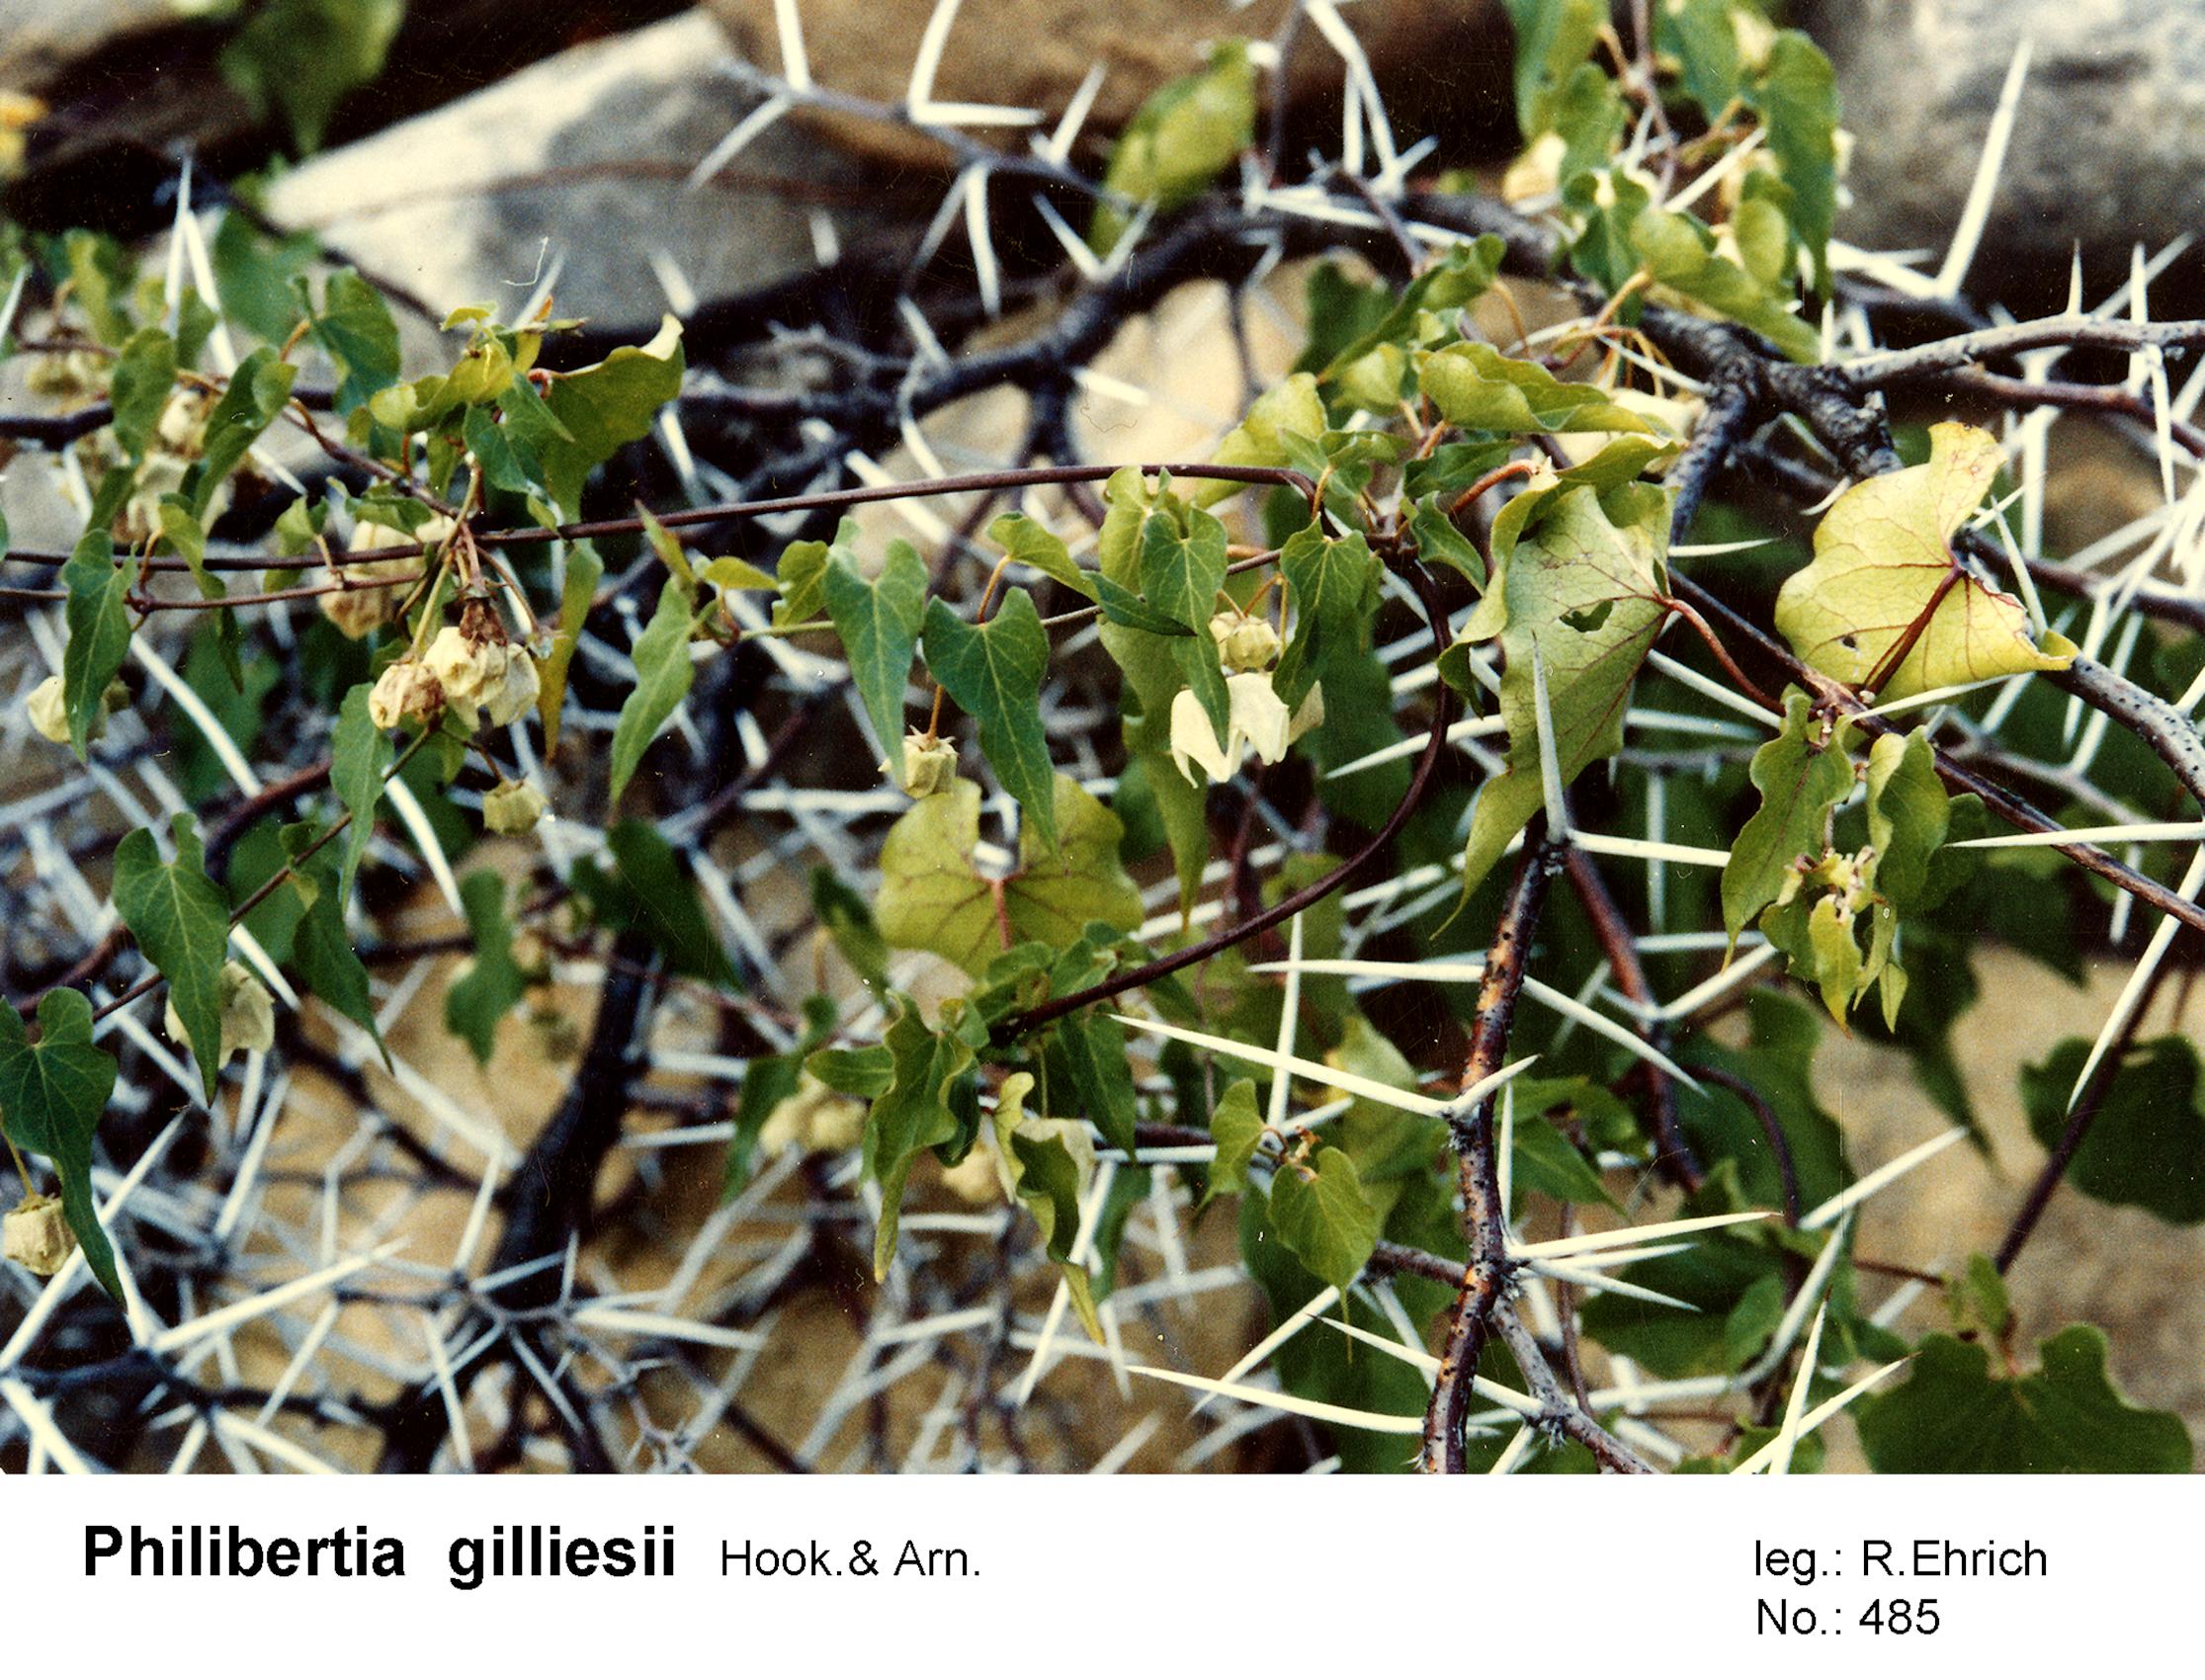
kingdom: Plantae
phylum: Tracheophyta
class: Magnoliopsida
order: Gentianales
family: Apocynaceae
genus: Philibertia
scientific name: Philibertia gilliesii
